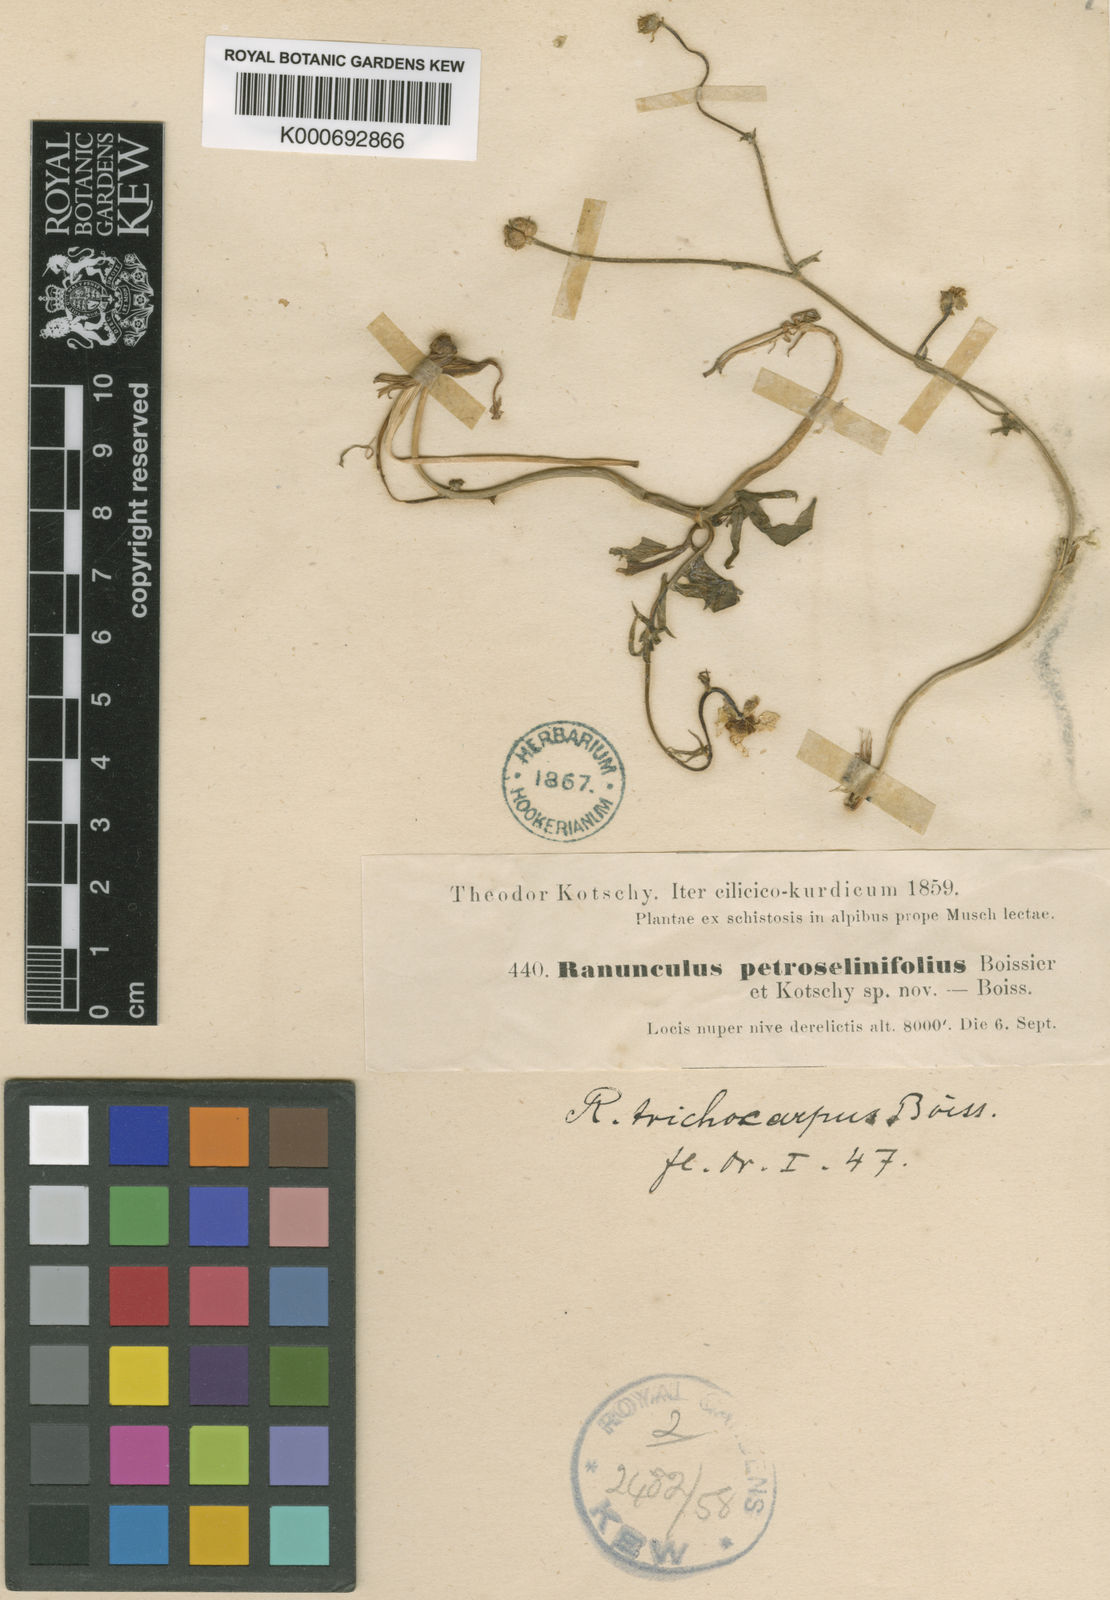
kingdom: Plantae
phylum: Tracheophyta
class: Magnoliopsida
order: Ranunculales
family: Ranunculaceae
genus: Ranunculus
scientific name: Ranunculus trichocarpus
